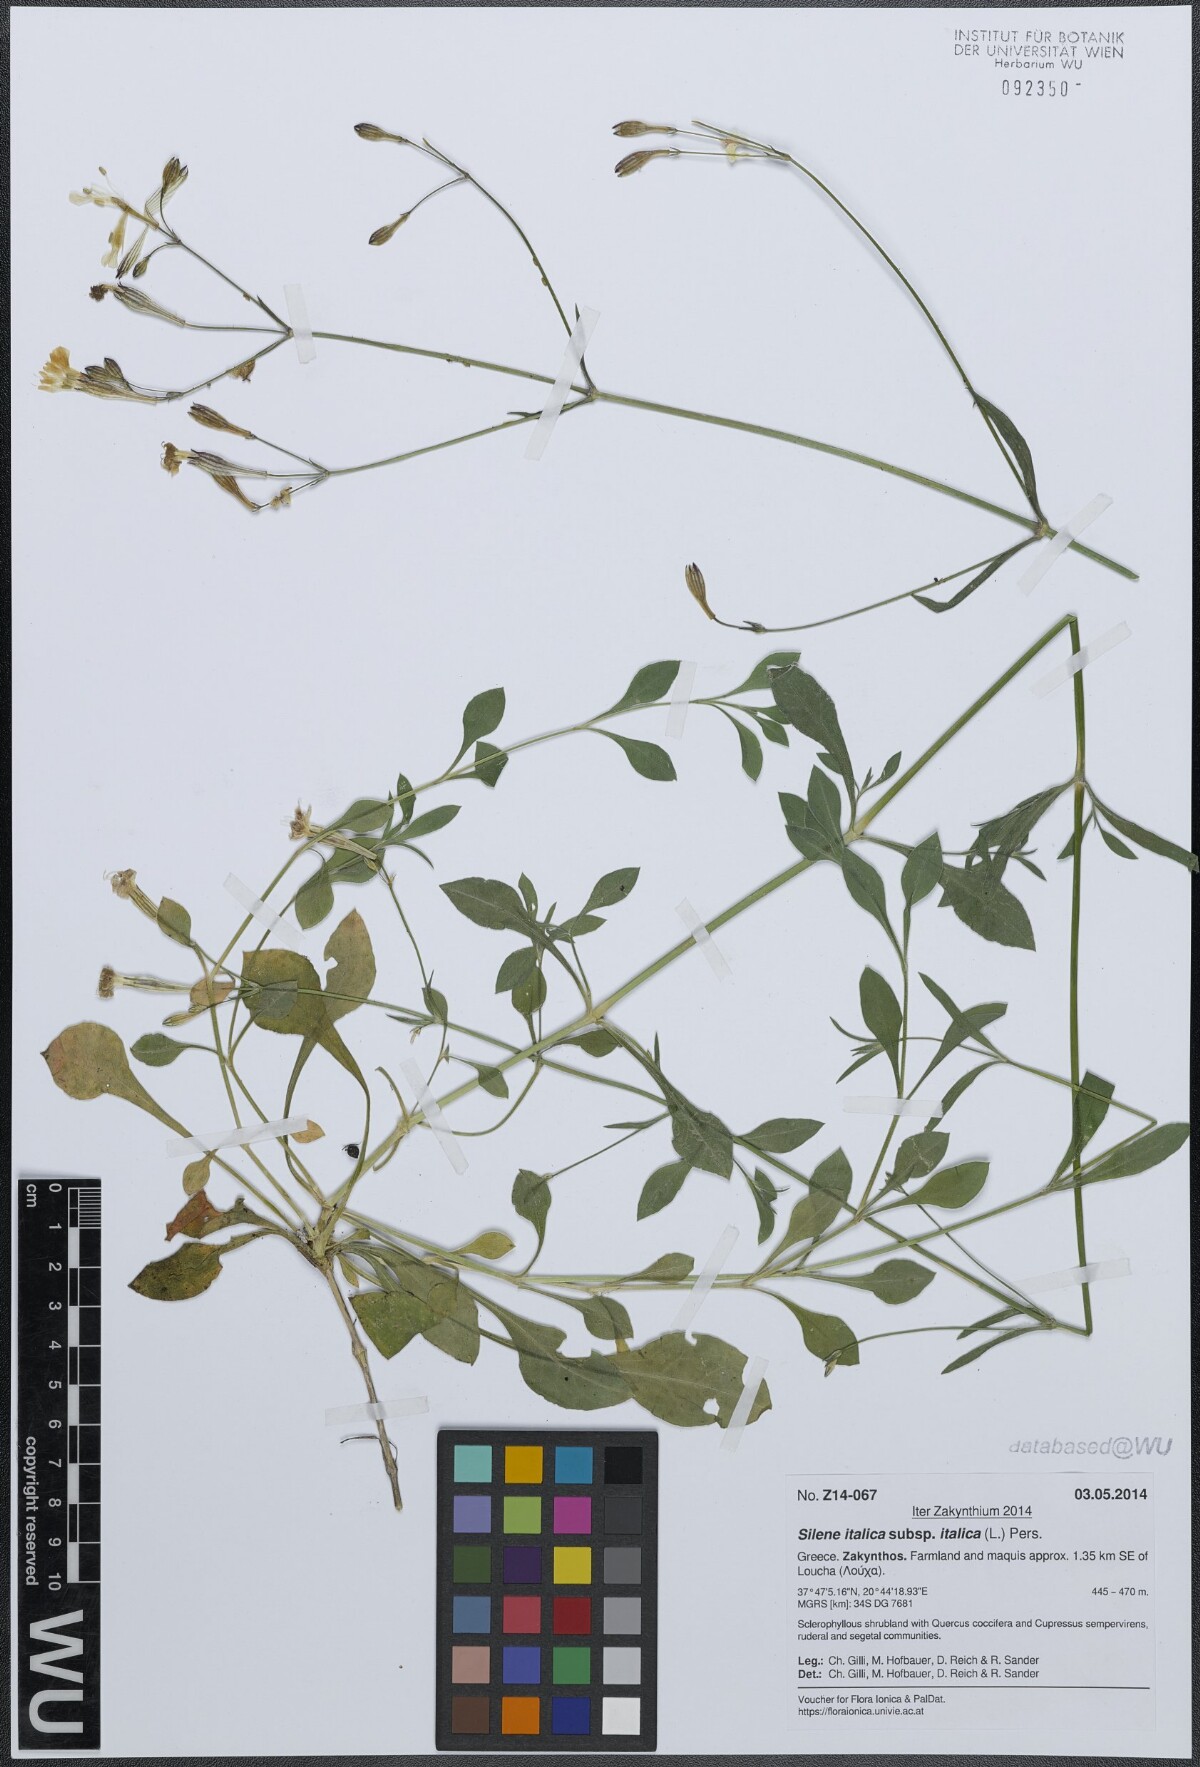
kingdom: Plantae
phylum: Tracheophyta
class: Magnoliopsida
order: Caryophyllales
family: Caryophyllaceae
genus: Silene
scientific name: Silene italica
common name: Italian catchfly
